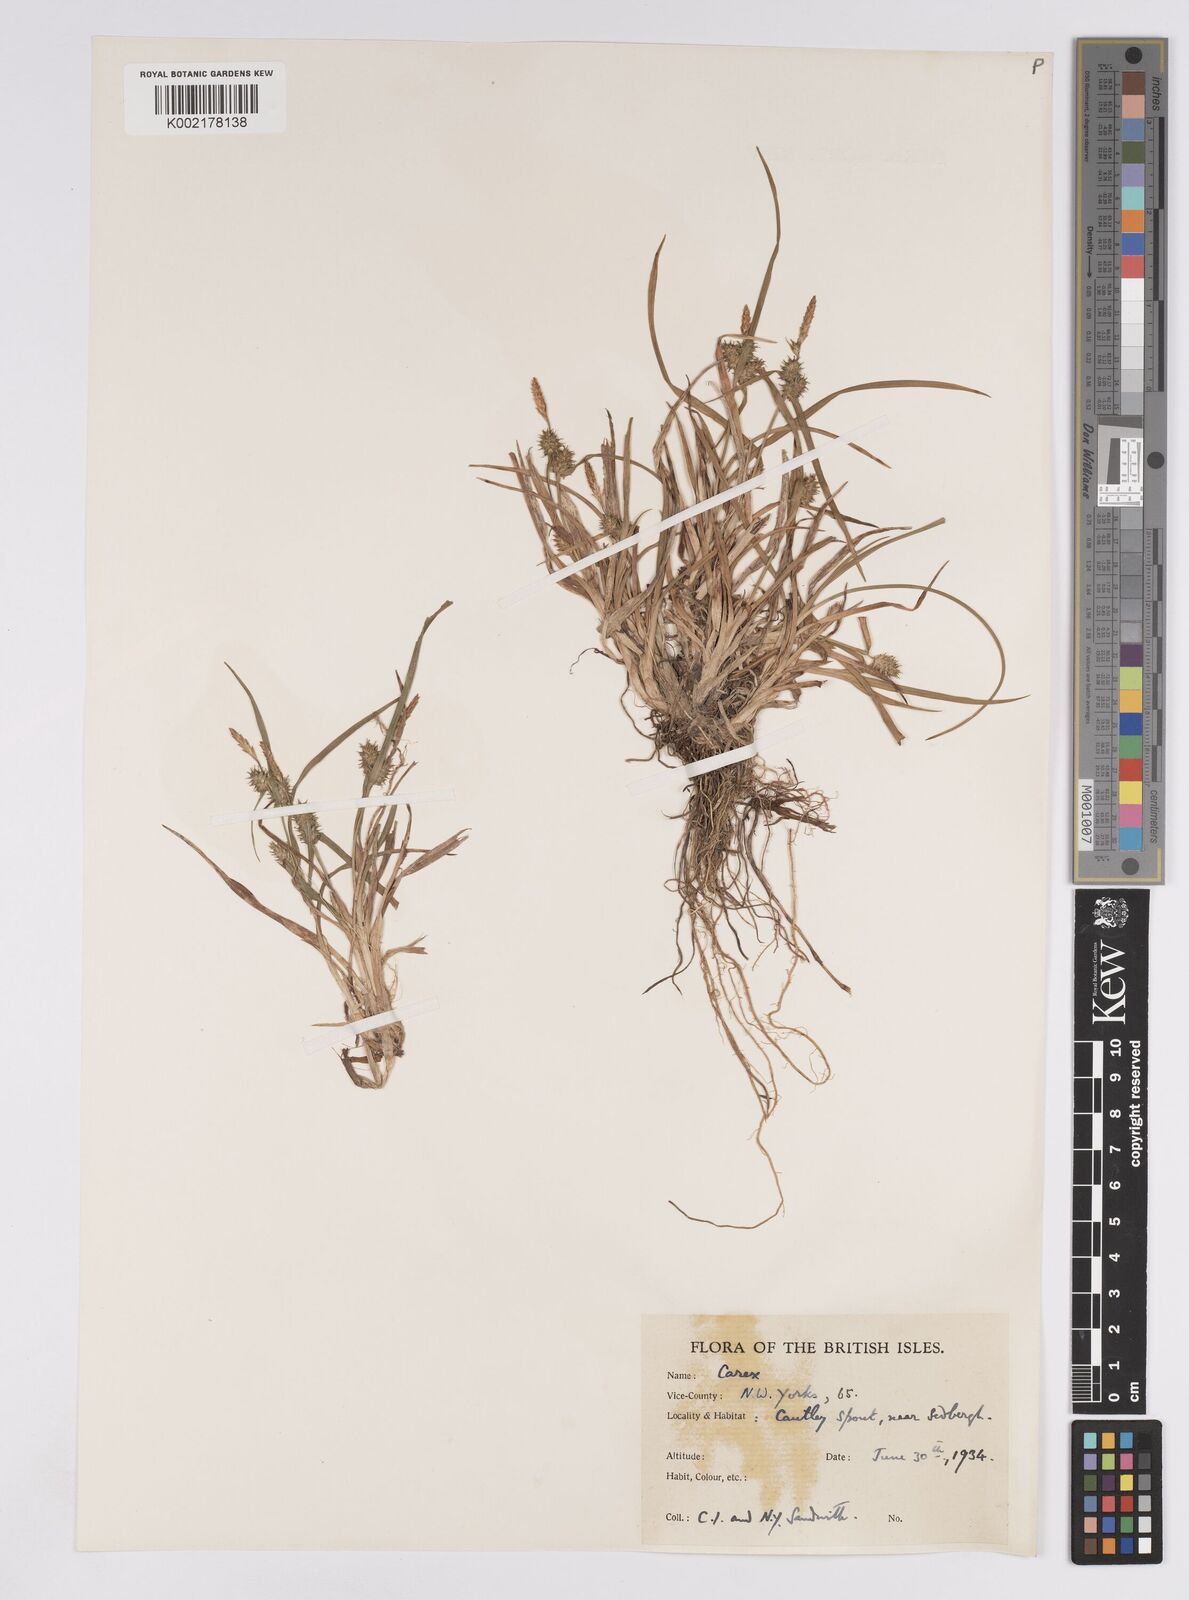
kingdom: Plantae
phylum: Tracheophyta
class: Liliopsida
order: Poales
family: Cyperaceae
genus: Carex
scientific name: Carex demissa
